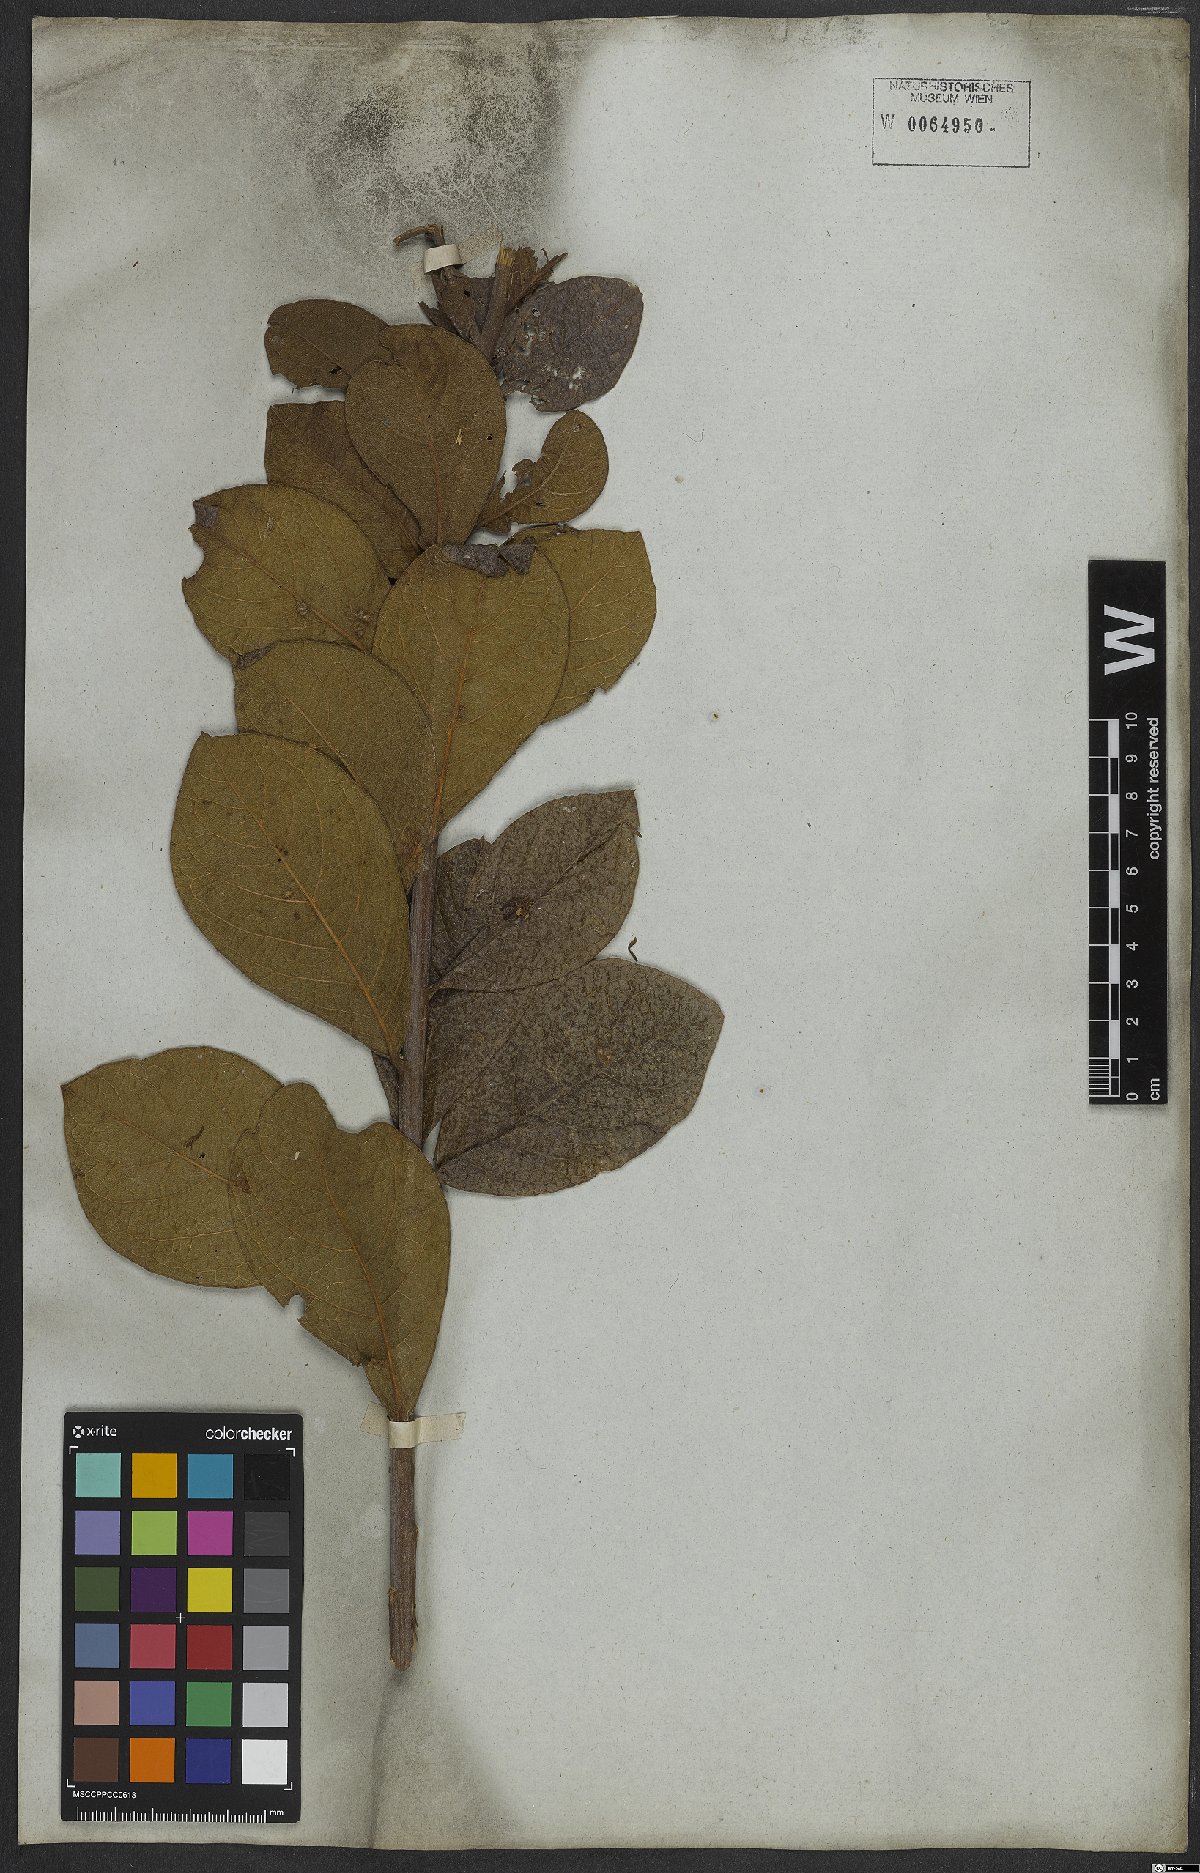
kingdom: Plantae
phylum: Tracheophyta
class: Magnoliopsida
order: Asterales
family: Asteraceae
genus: Lessingianthus
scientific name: Lessingianthus zuccarinianus
